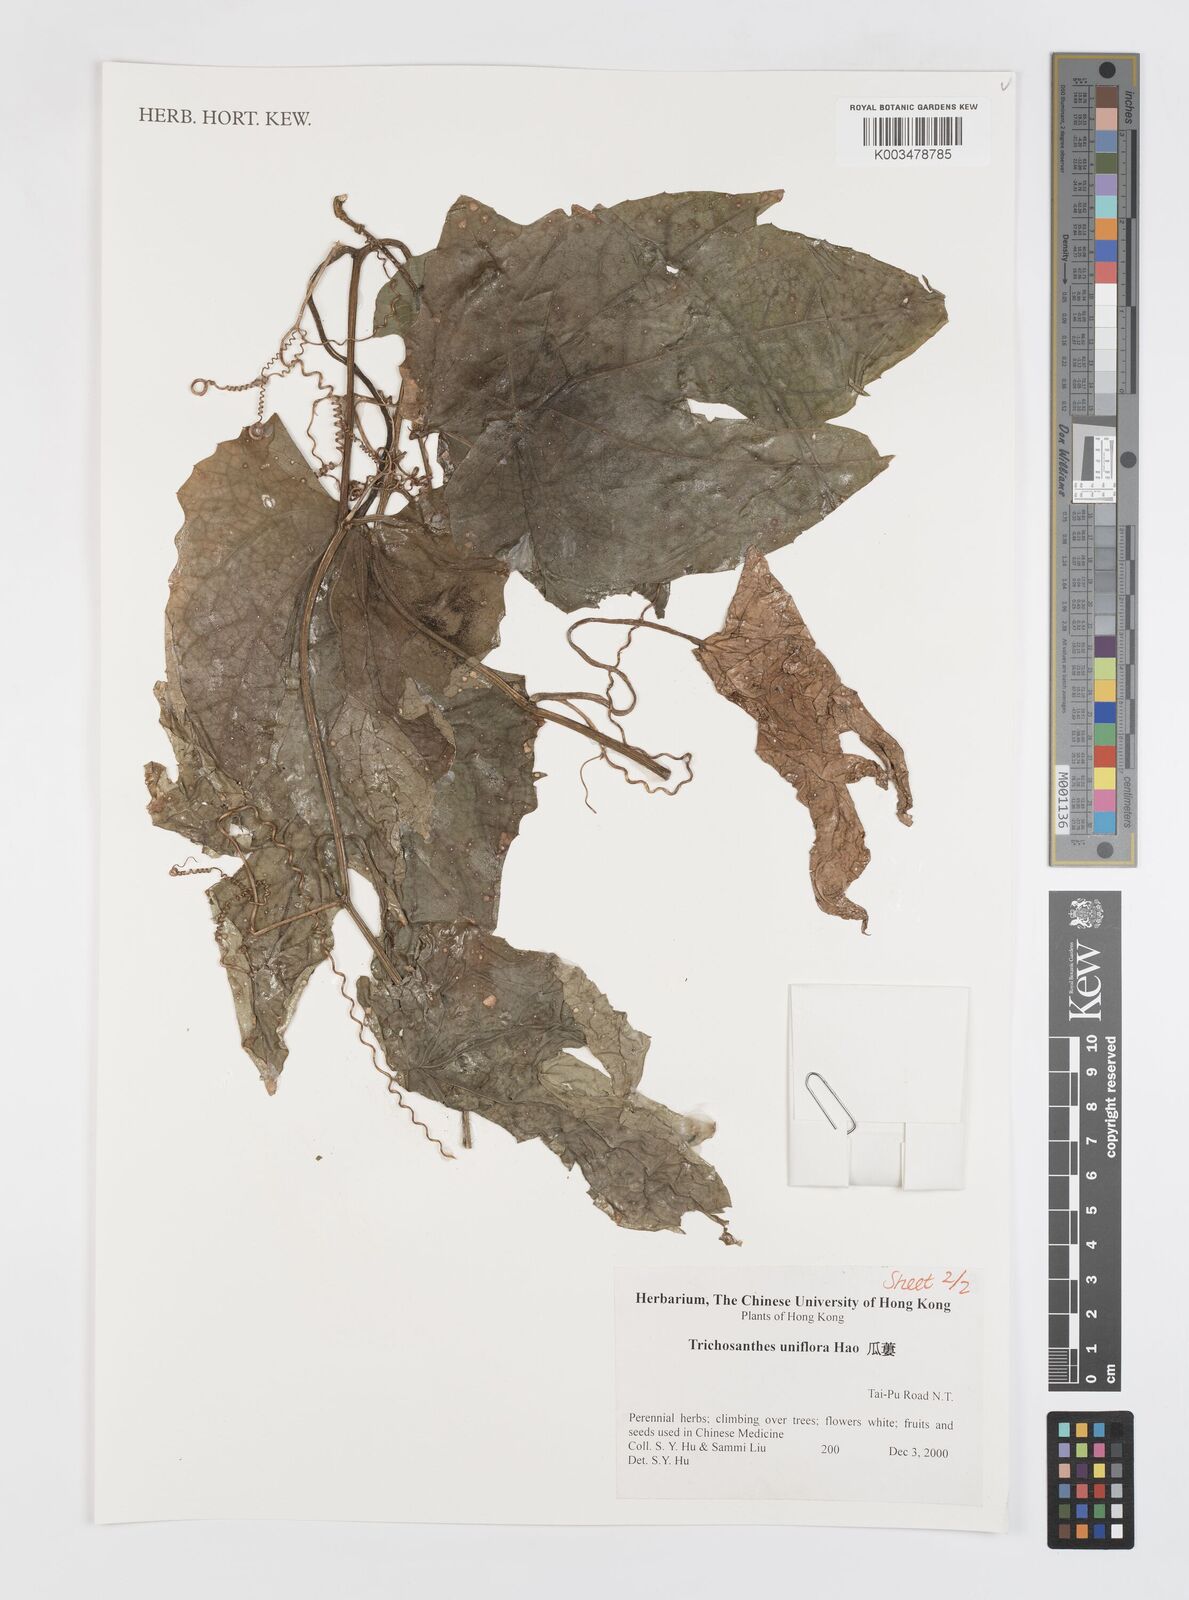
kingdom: Plantae
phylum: Tracheophyta
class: Magnoliopsida
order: Cucurbitales
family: Cucurbitaceae
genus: Trichosanthes
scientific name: Trichosanthes rosthornii
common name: Rosthorn snake gourd
